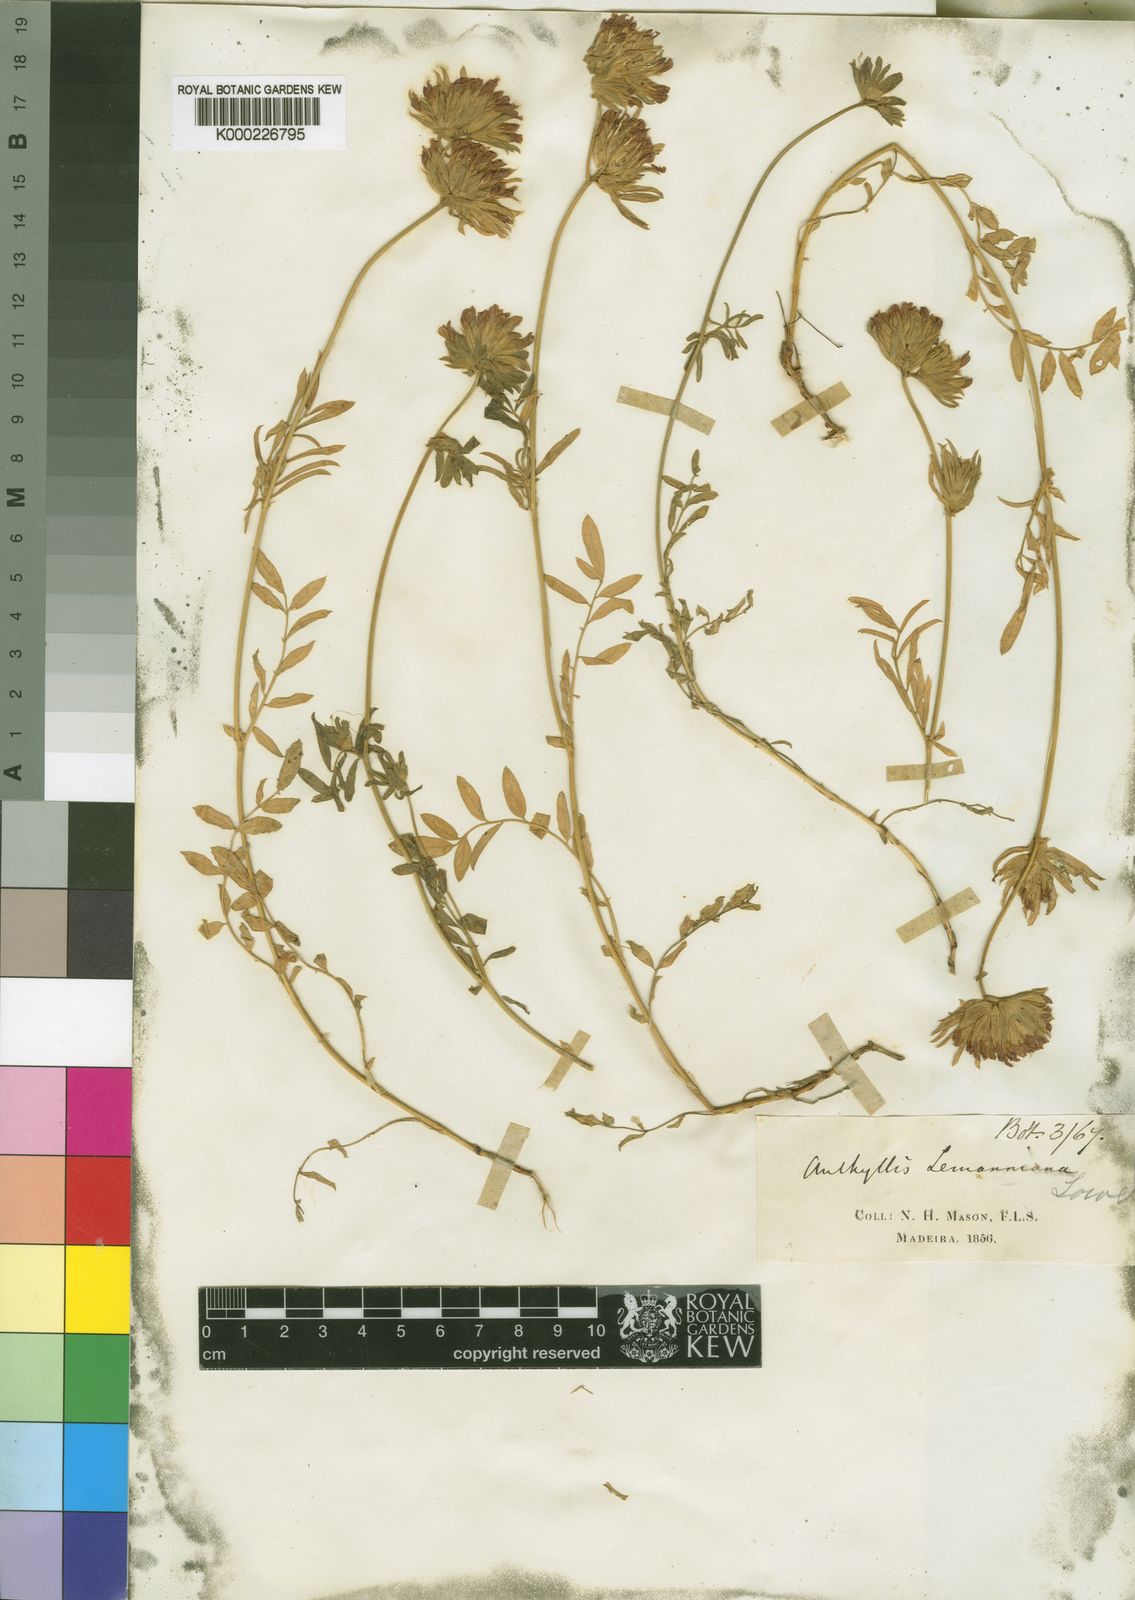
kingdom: Plantae
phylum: Tracheophyta
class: Magnoliopsida
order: Fabales
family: Fabaceae
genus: Anthyllis
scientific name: Anthyllis lemanniana
